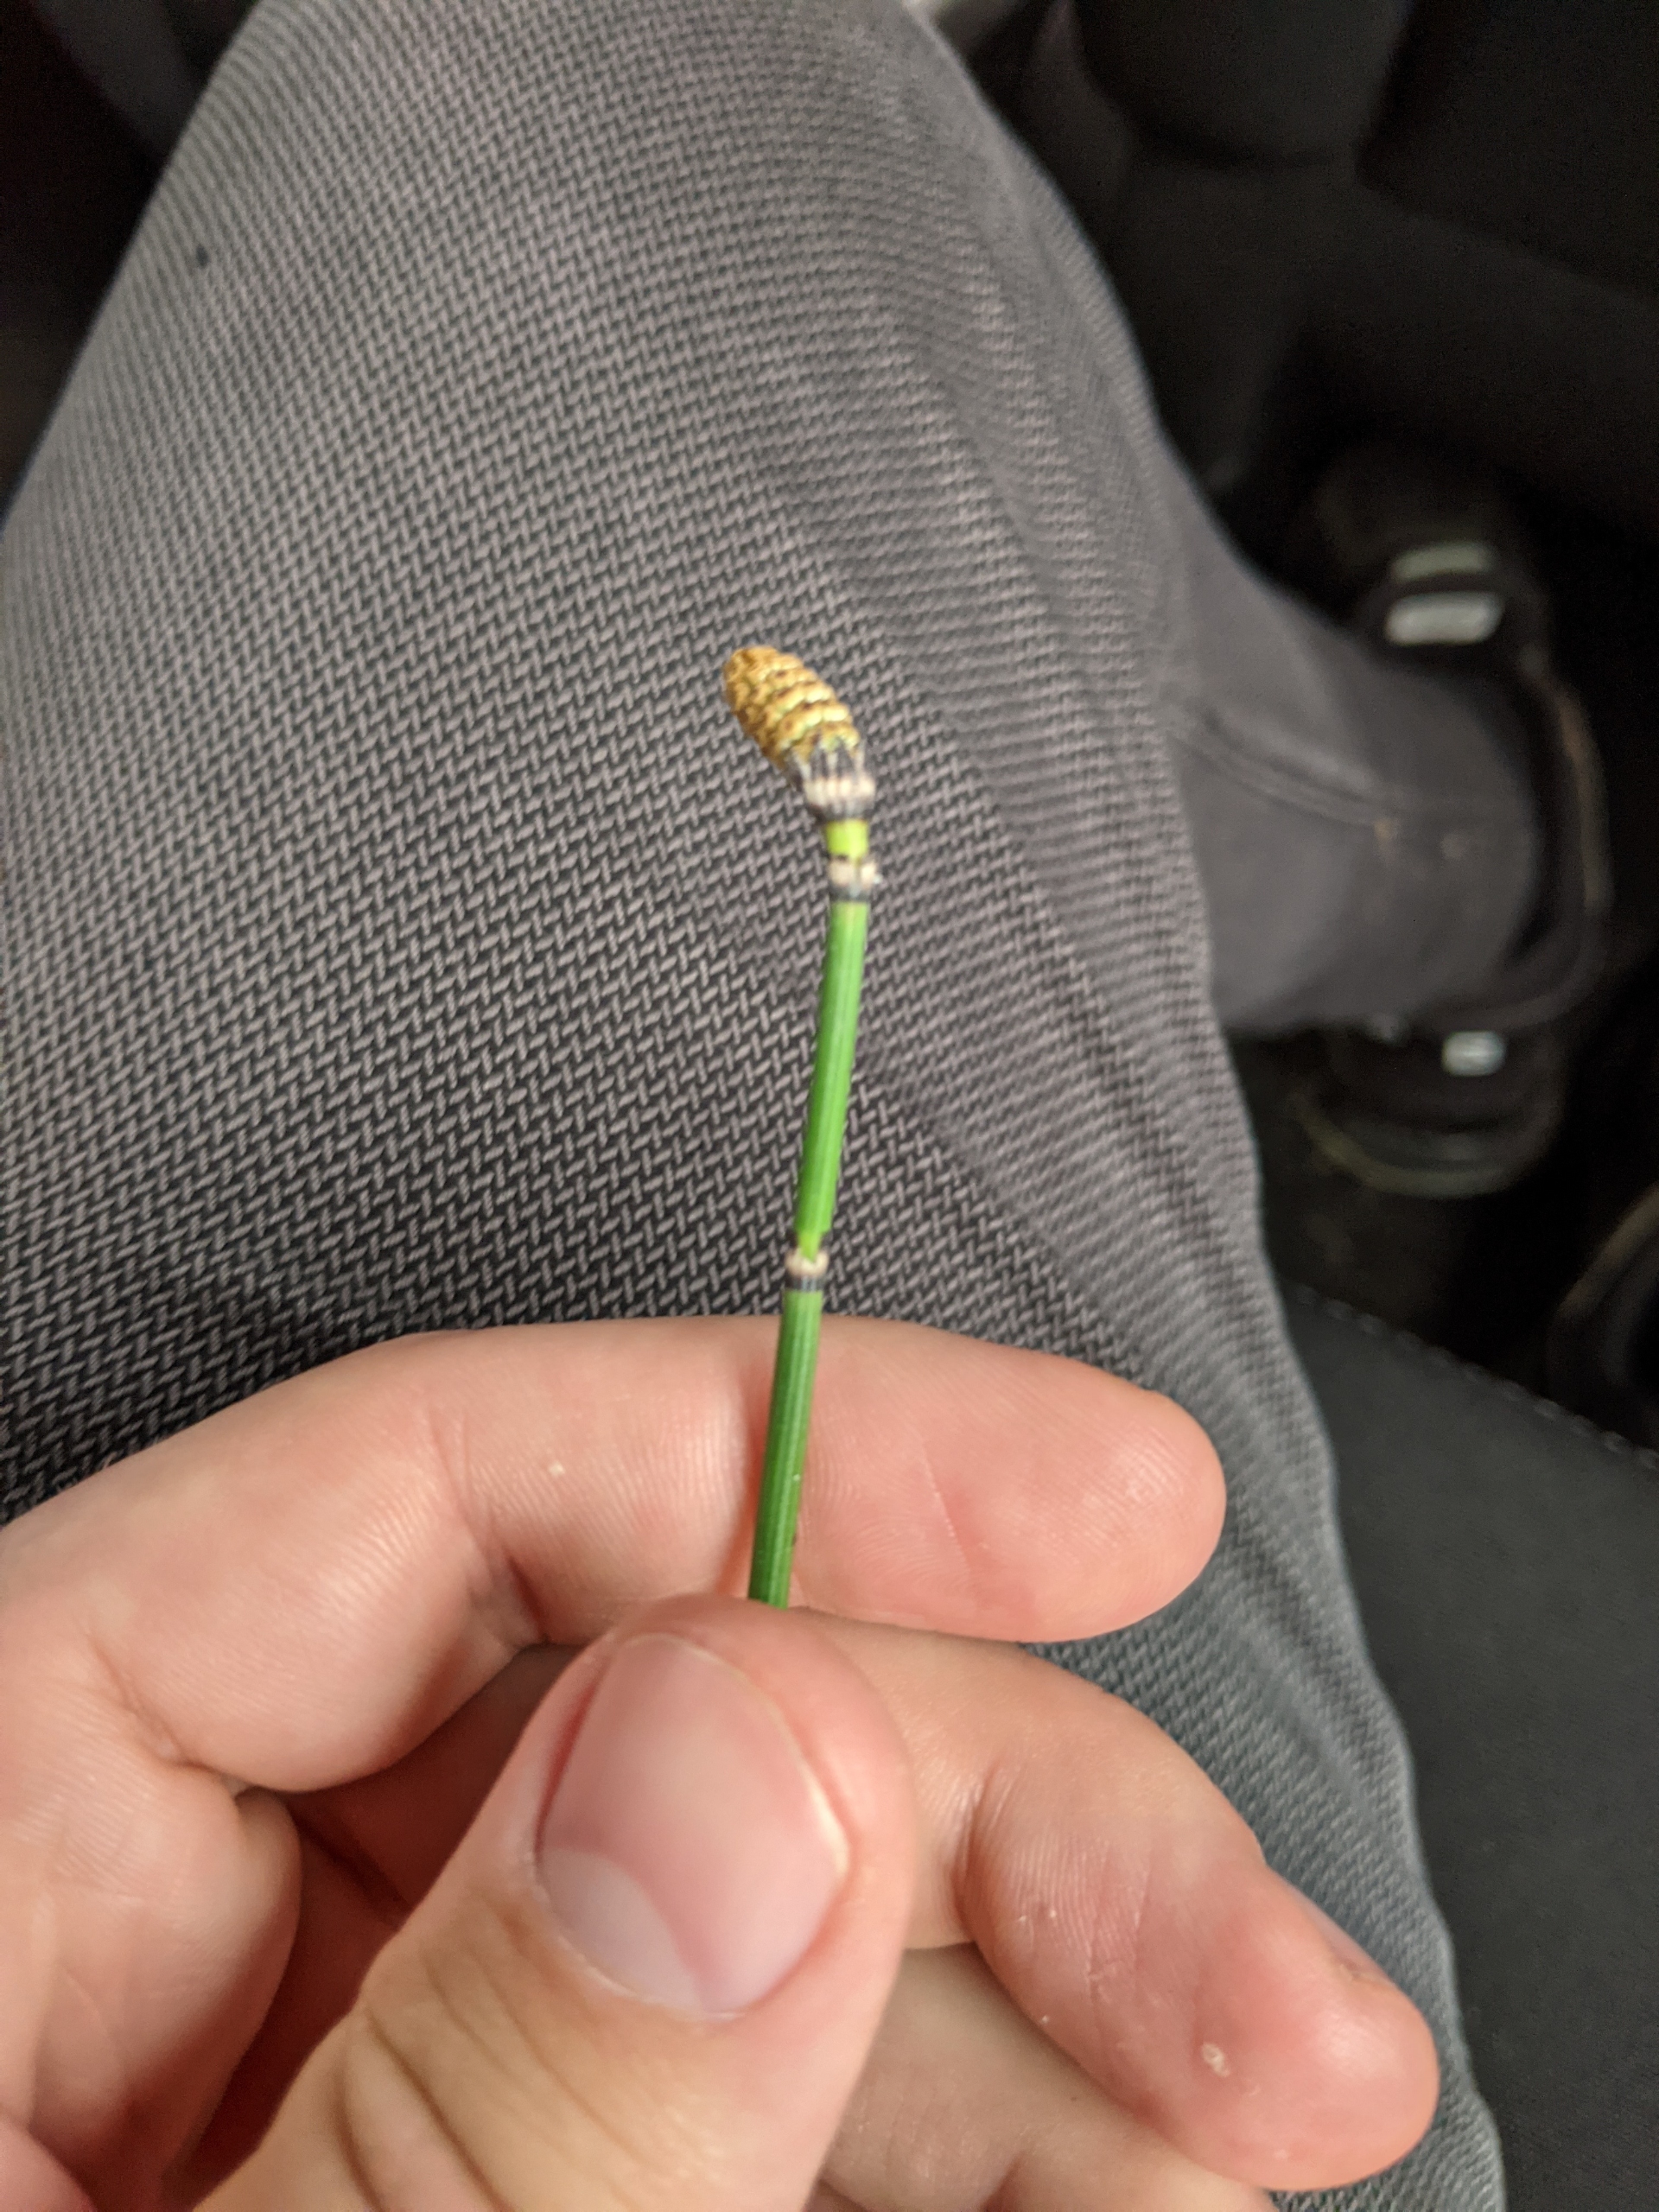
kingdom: Plantae
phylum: Tracheophyta
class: Polypodiopsida
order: Equisetales
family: Equisetaceae
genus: Equisetum
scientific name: Equisetum hyemale
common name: Skavgræs
